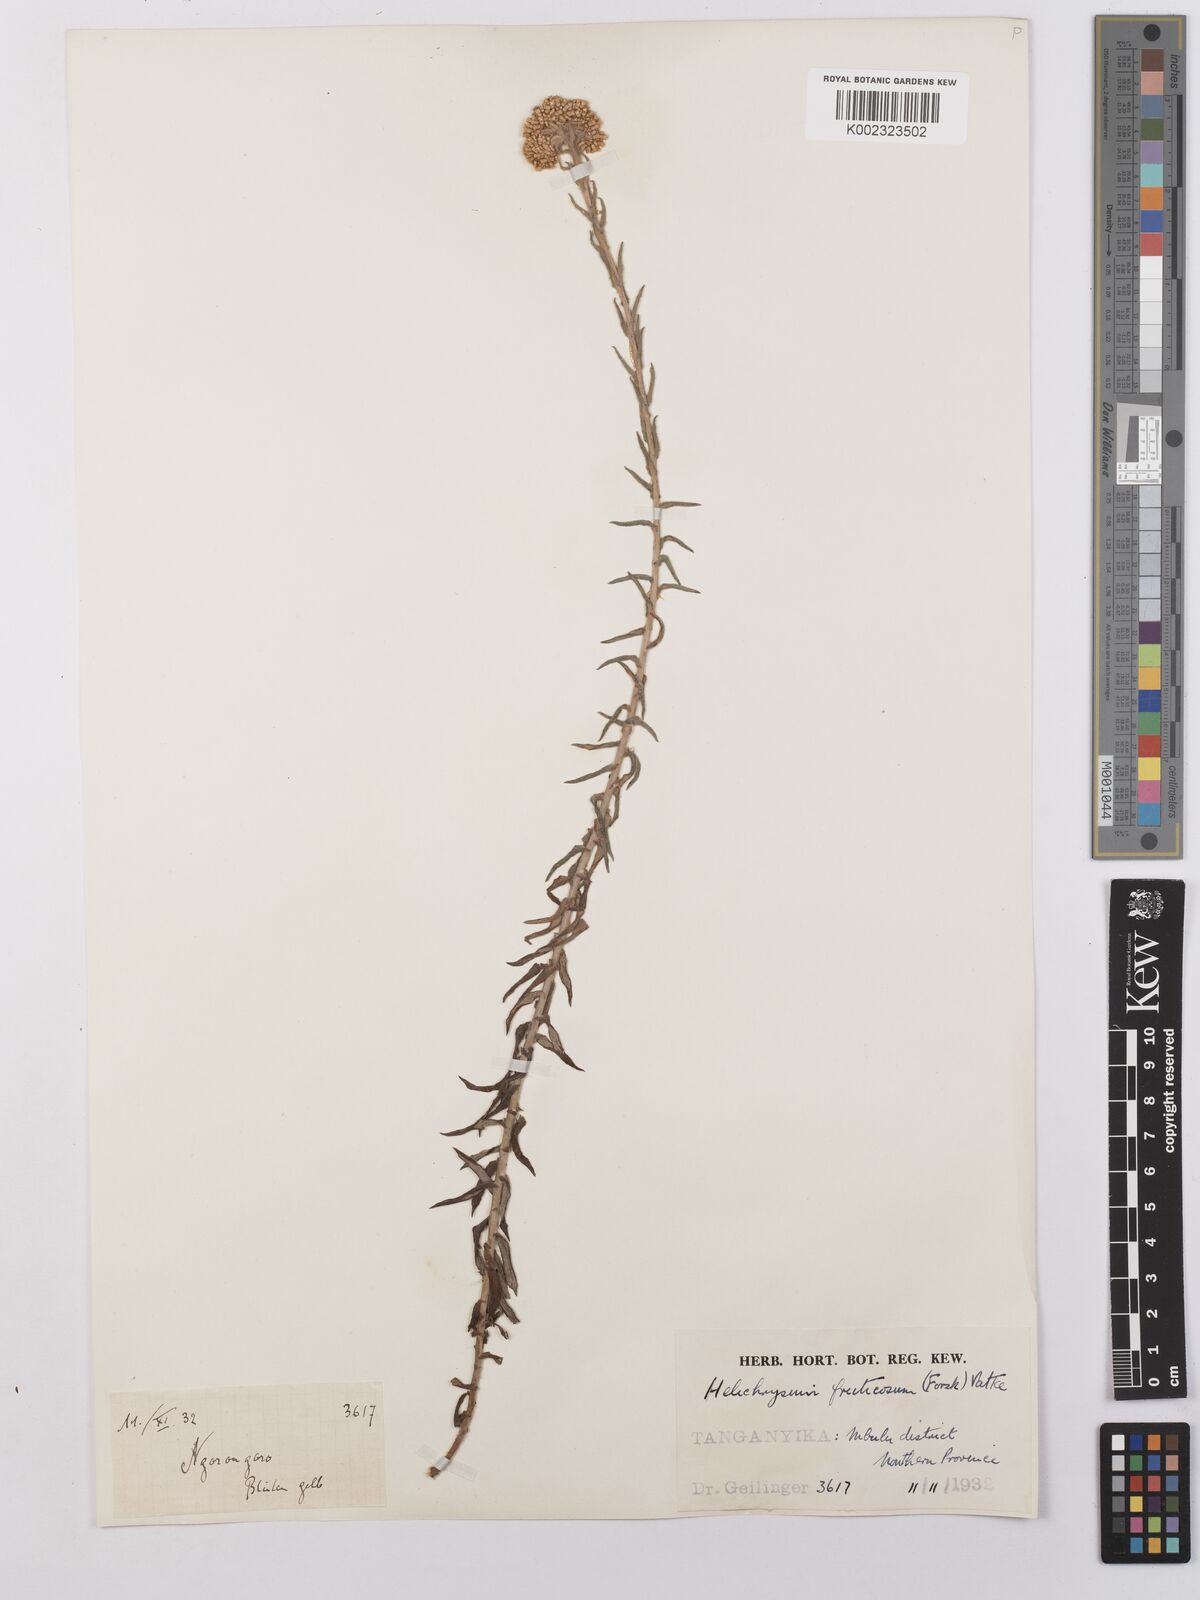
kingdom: Plantae
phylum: Tracheophyta
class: Magnoliopsida
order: Asterales
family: Asteraceae
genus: Helichrysum
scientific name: Helichrysum forskahlii
